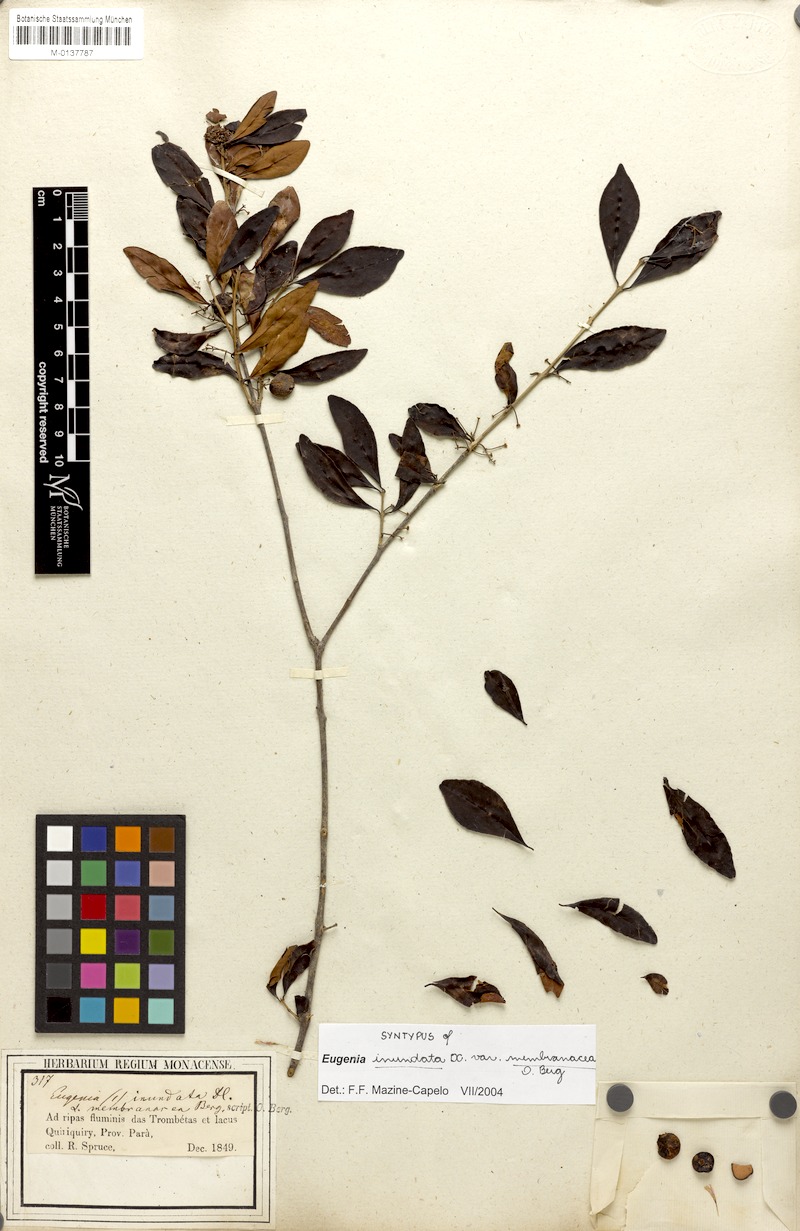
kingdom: Plantae
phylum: Tracheophyta
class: Magnoliopsida
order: Myrtales
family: Myrtaceae
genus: Eugenia
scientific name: Eugenia inundata
